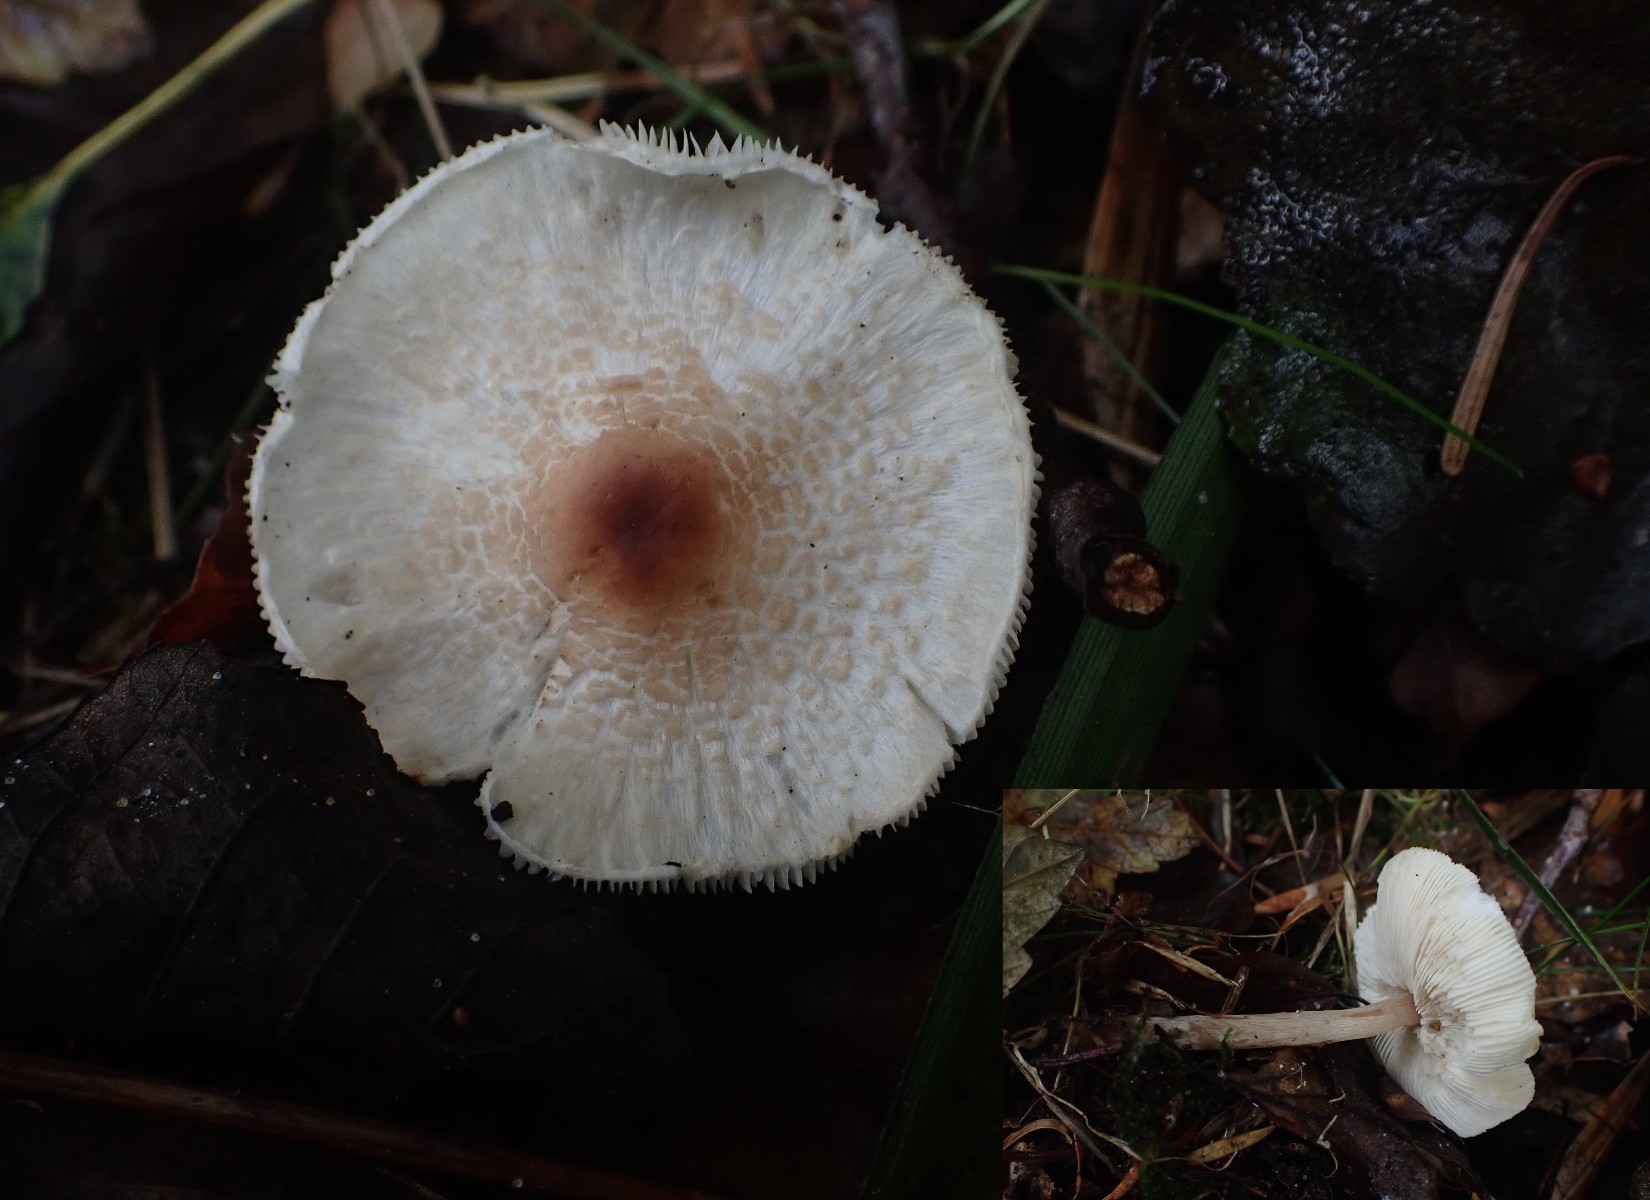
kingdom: Fungi
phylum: Basidiomycota
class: Agaricomycetes
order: Agaricales
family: Agaricaceae
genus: Lepiota
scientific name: Lepiota cristata
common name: stinkende parasolhat
